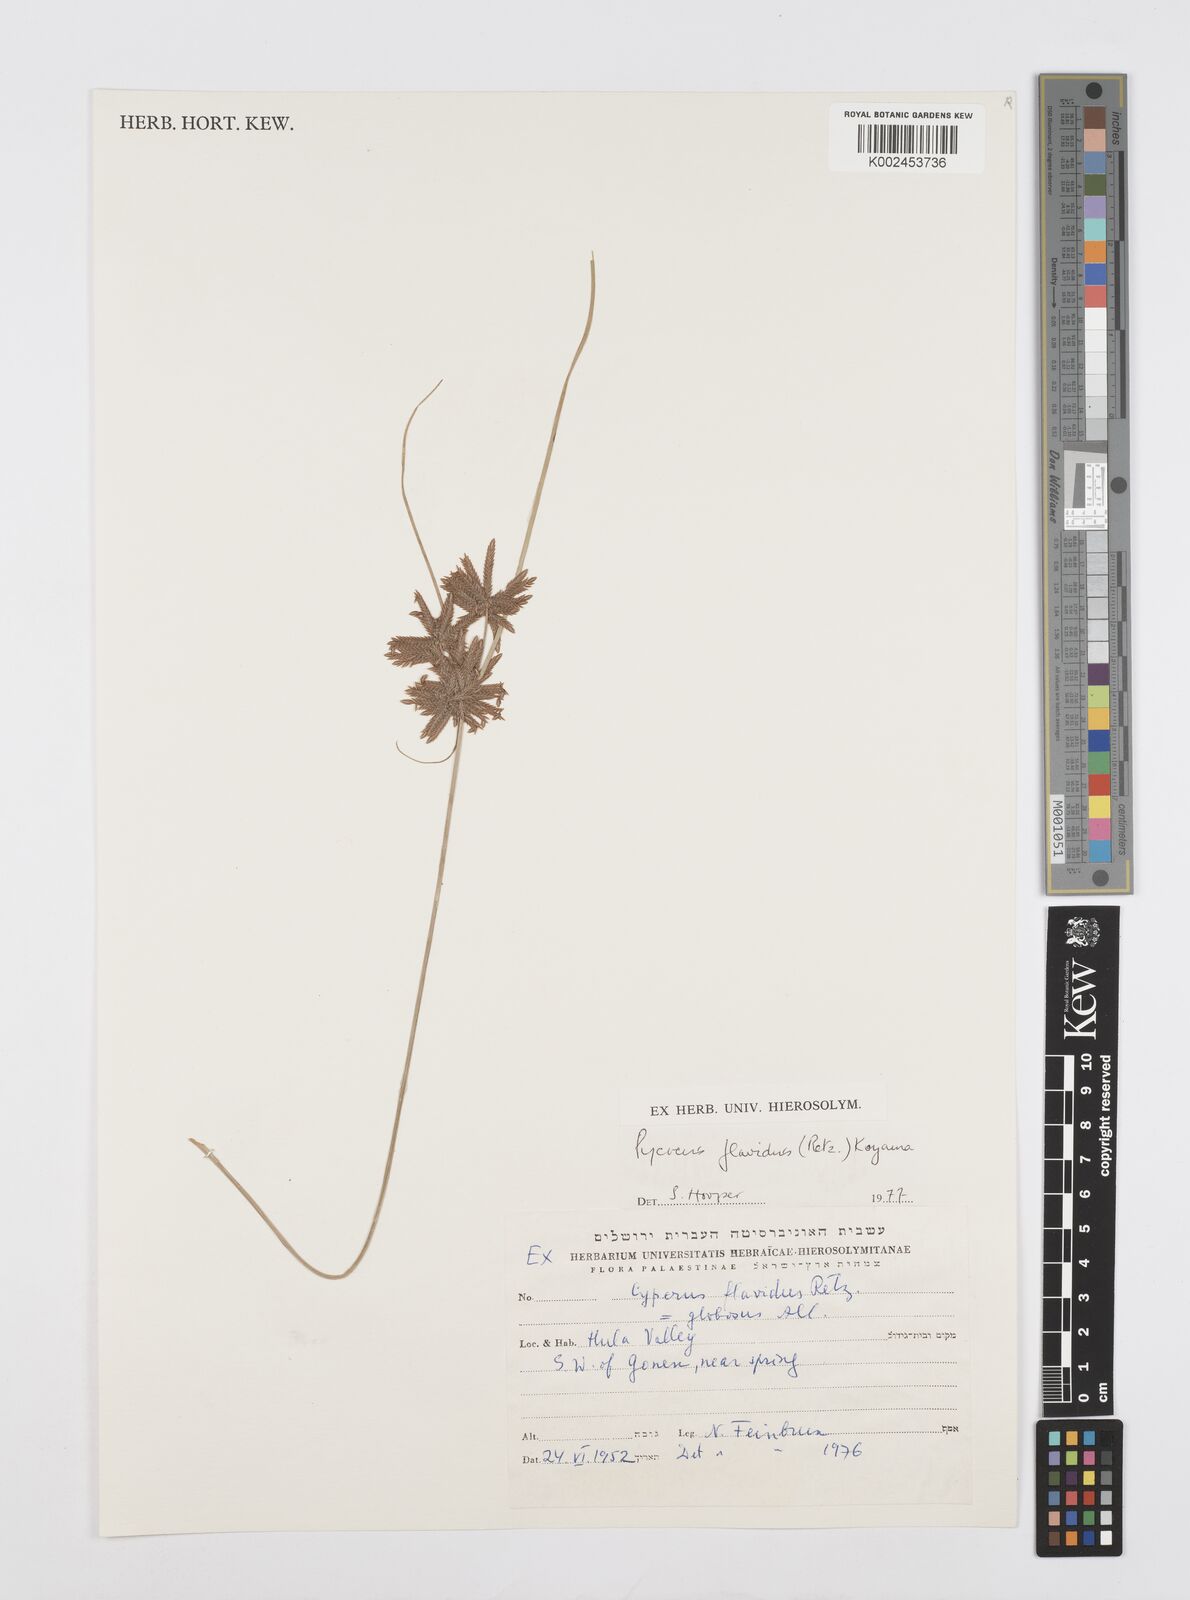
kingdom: Plantae
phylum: Tracheophyta
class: Liliopsida
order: Poales
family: Cyperaceae
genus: Cyperus
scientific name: Cyperus flavidus
